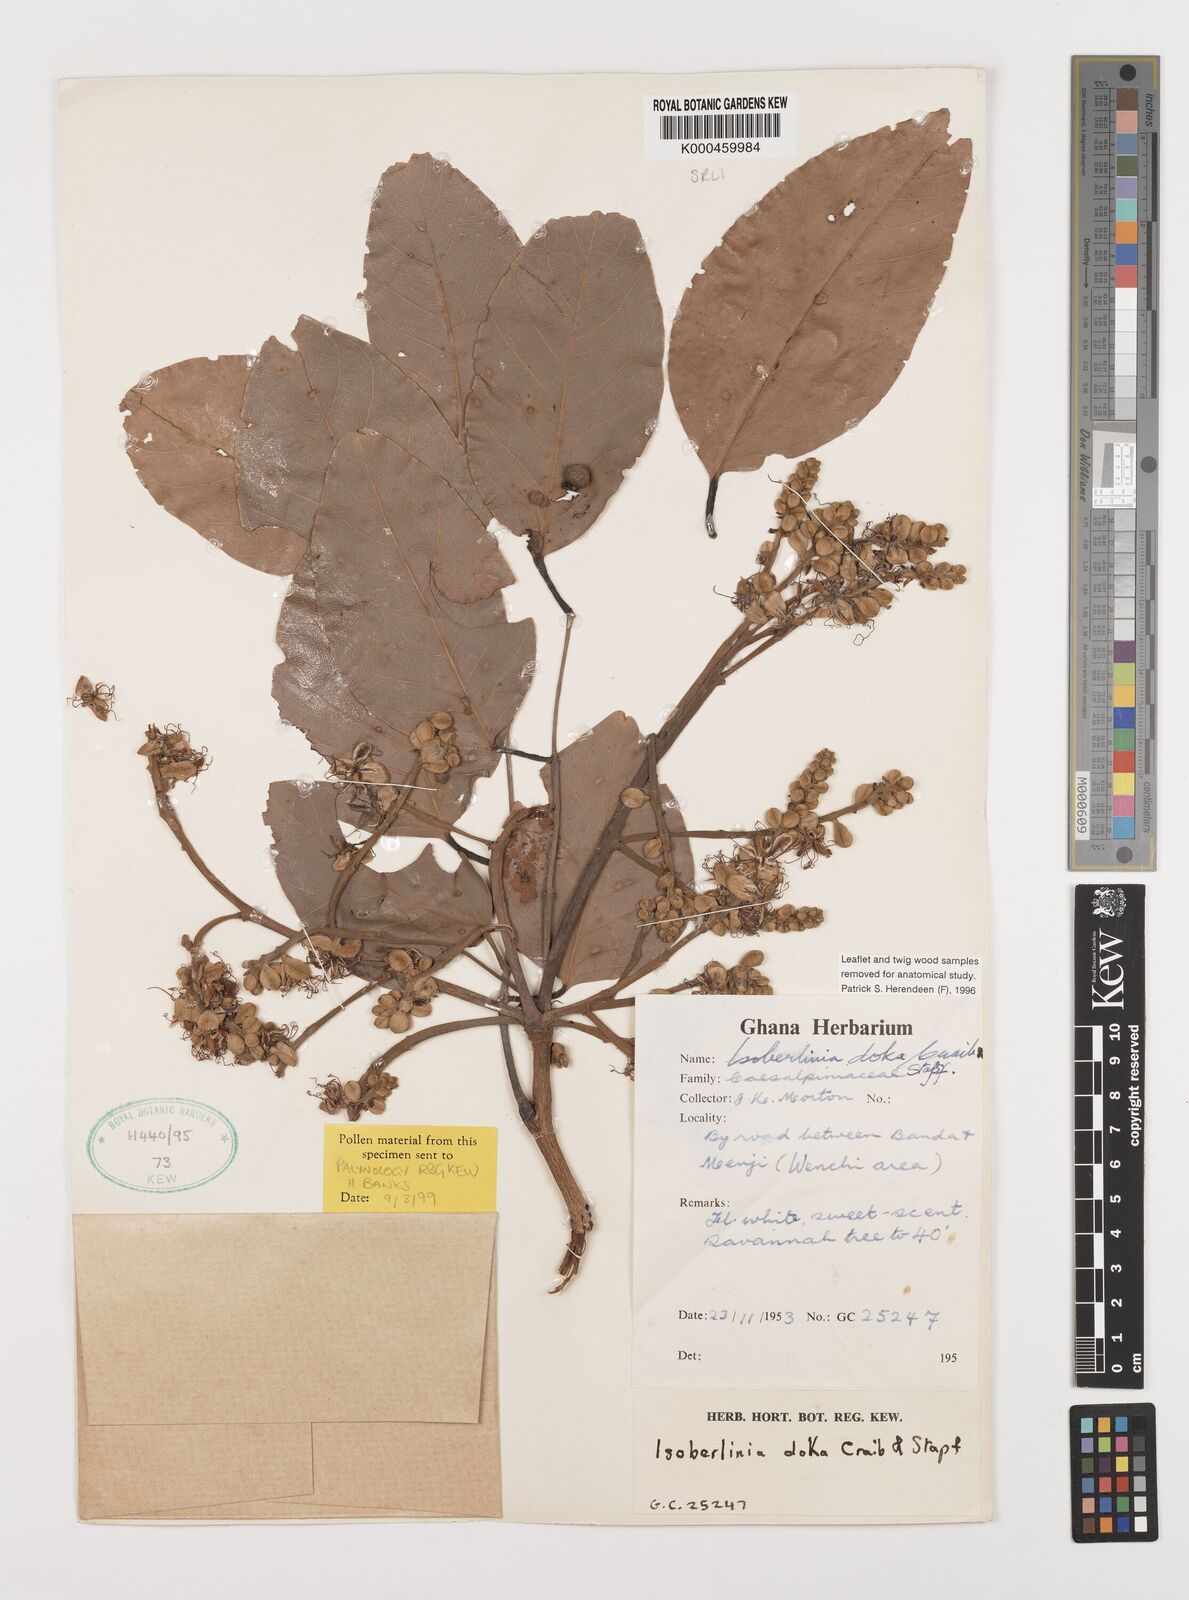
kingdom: Plantae
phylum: Tracheophyta
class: Magnoliopsida
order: Fabales
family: Fabaceae
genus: Isoberlinia
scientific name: Isoberlinia doka
